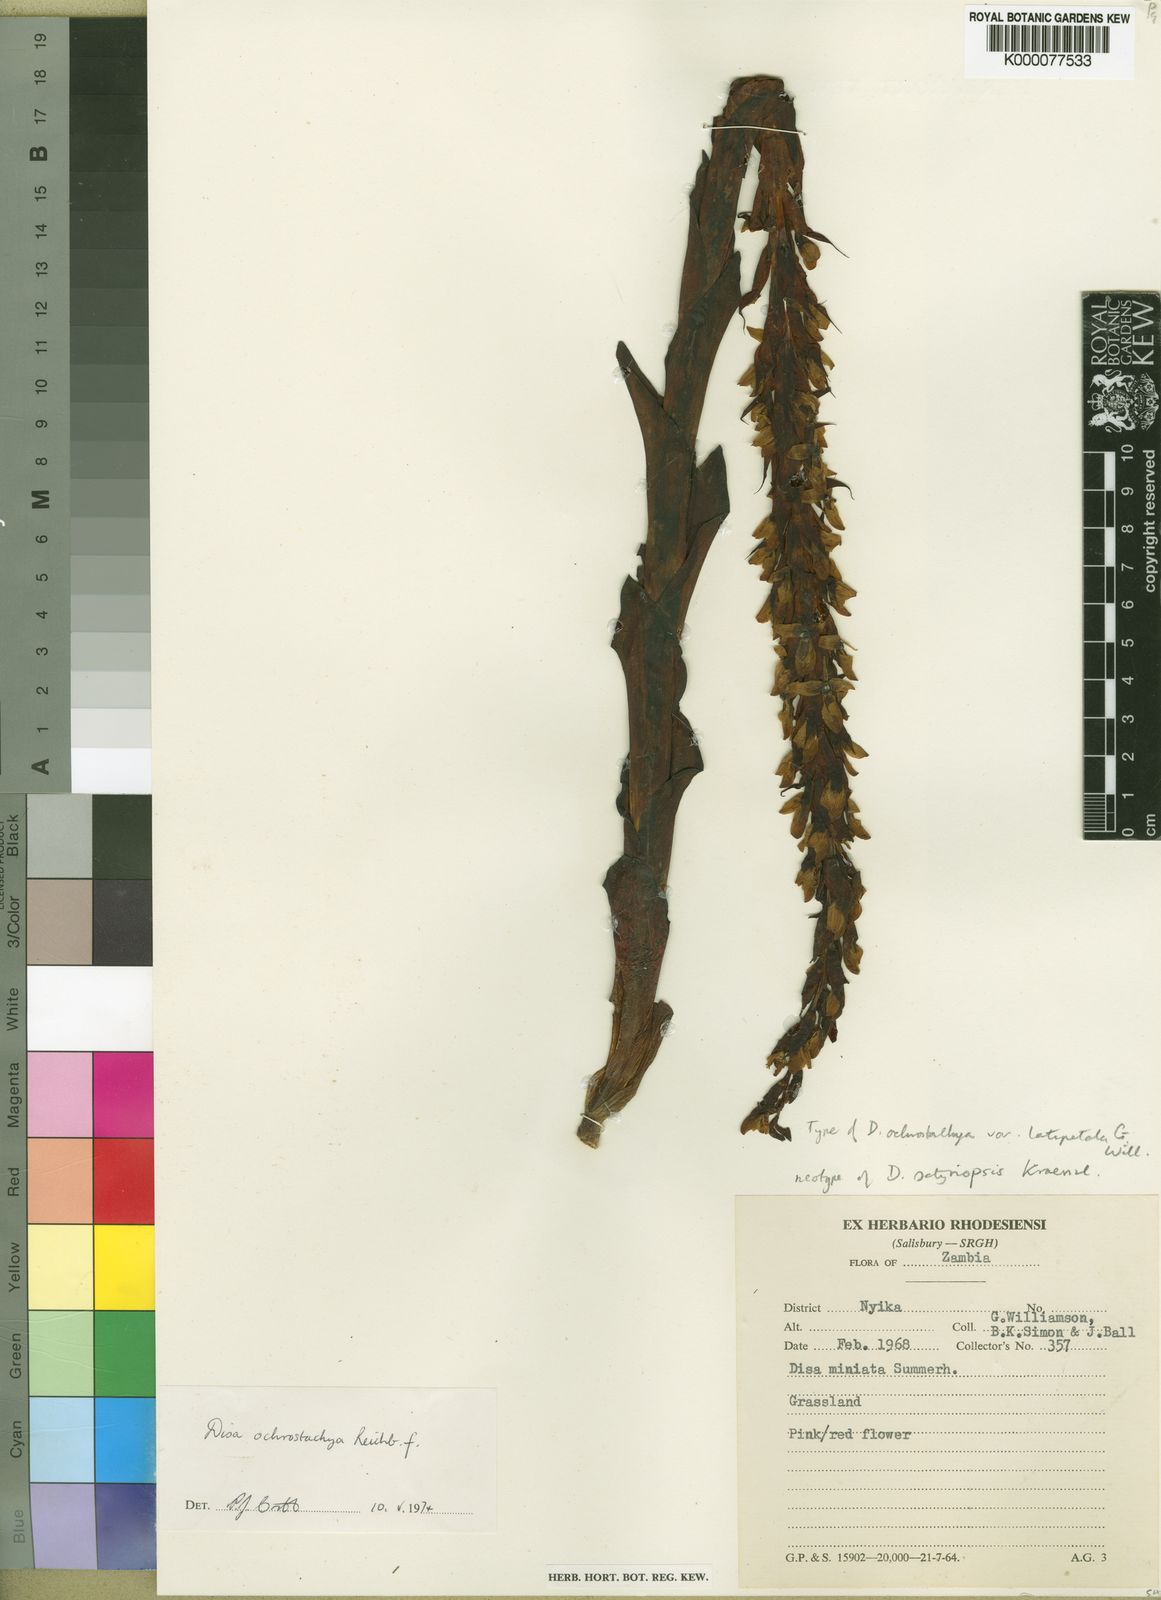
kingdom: Plantae
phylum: Tracheophyta
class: Liliopsida
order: Asparagales
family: Orchidaceae
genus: Disa
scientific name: Disa satyriopsis
